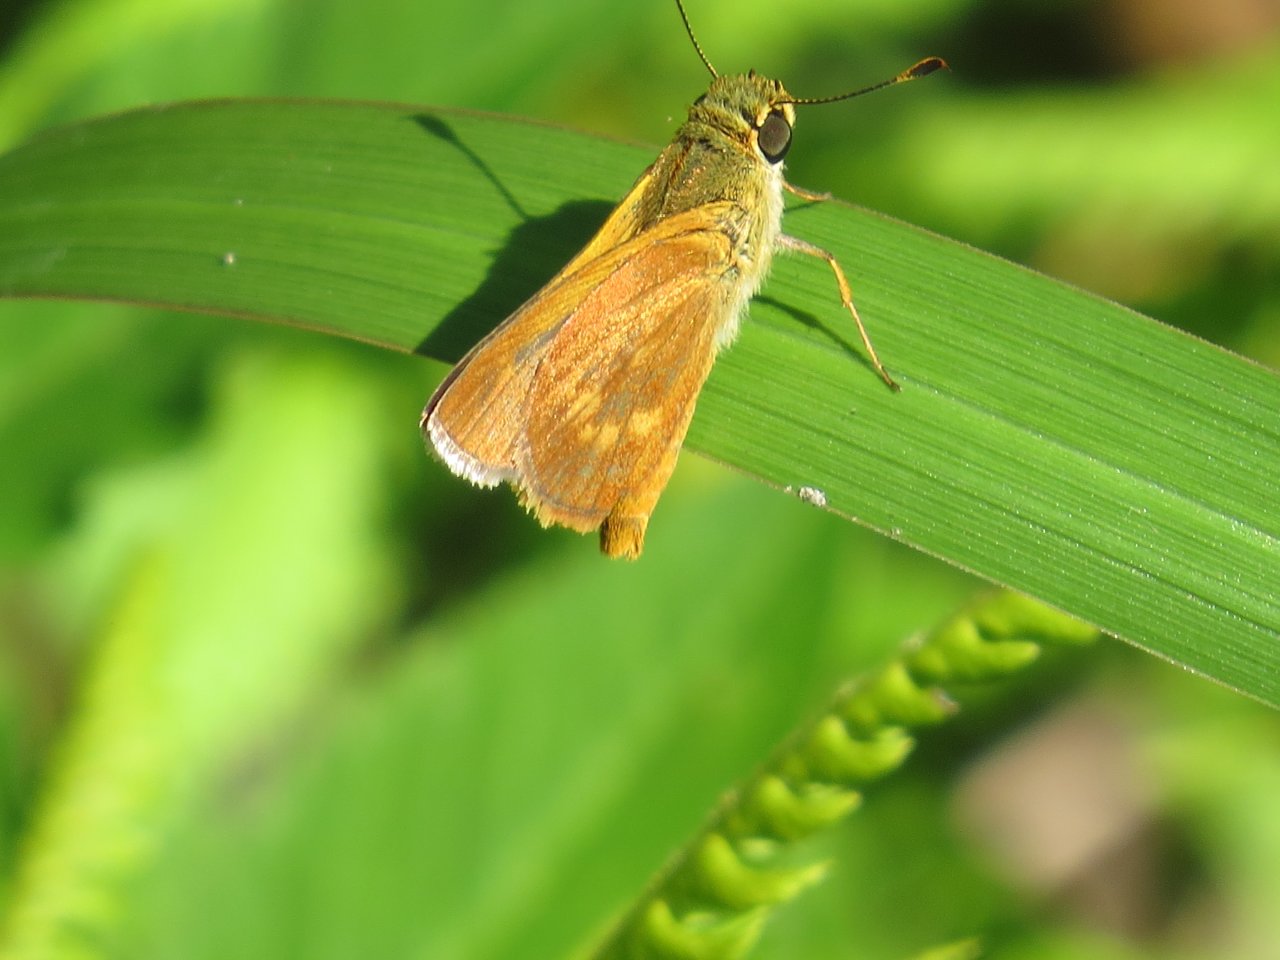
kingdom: Animalia
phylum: Arthropoda
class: Insecta
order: Lepidoptera
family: Hesperiidae
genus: Wallengrenia
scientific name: Wallengrenia otho
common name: Southern Broken-Dash
